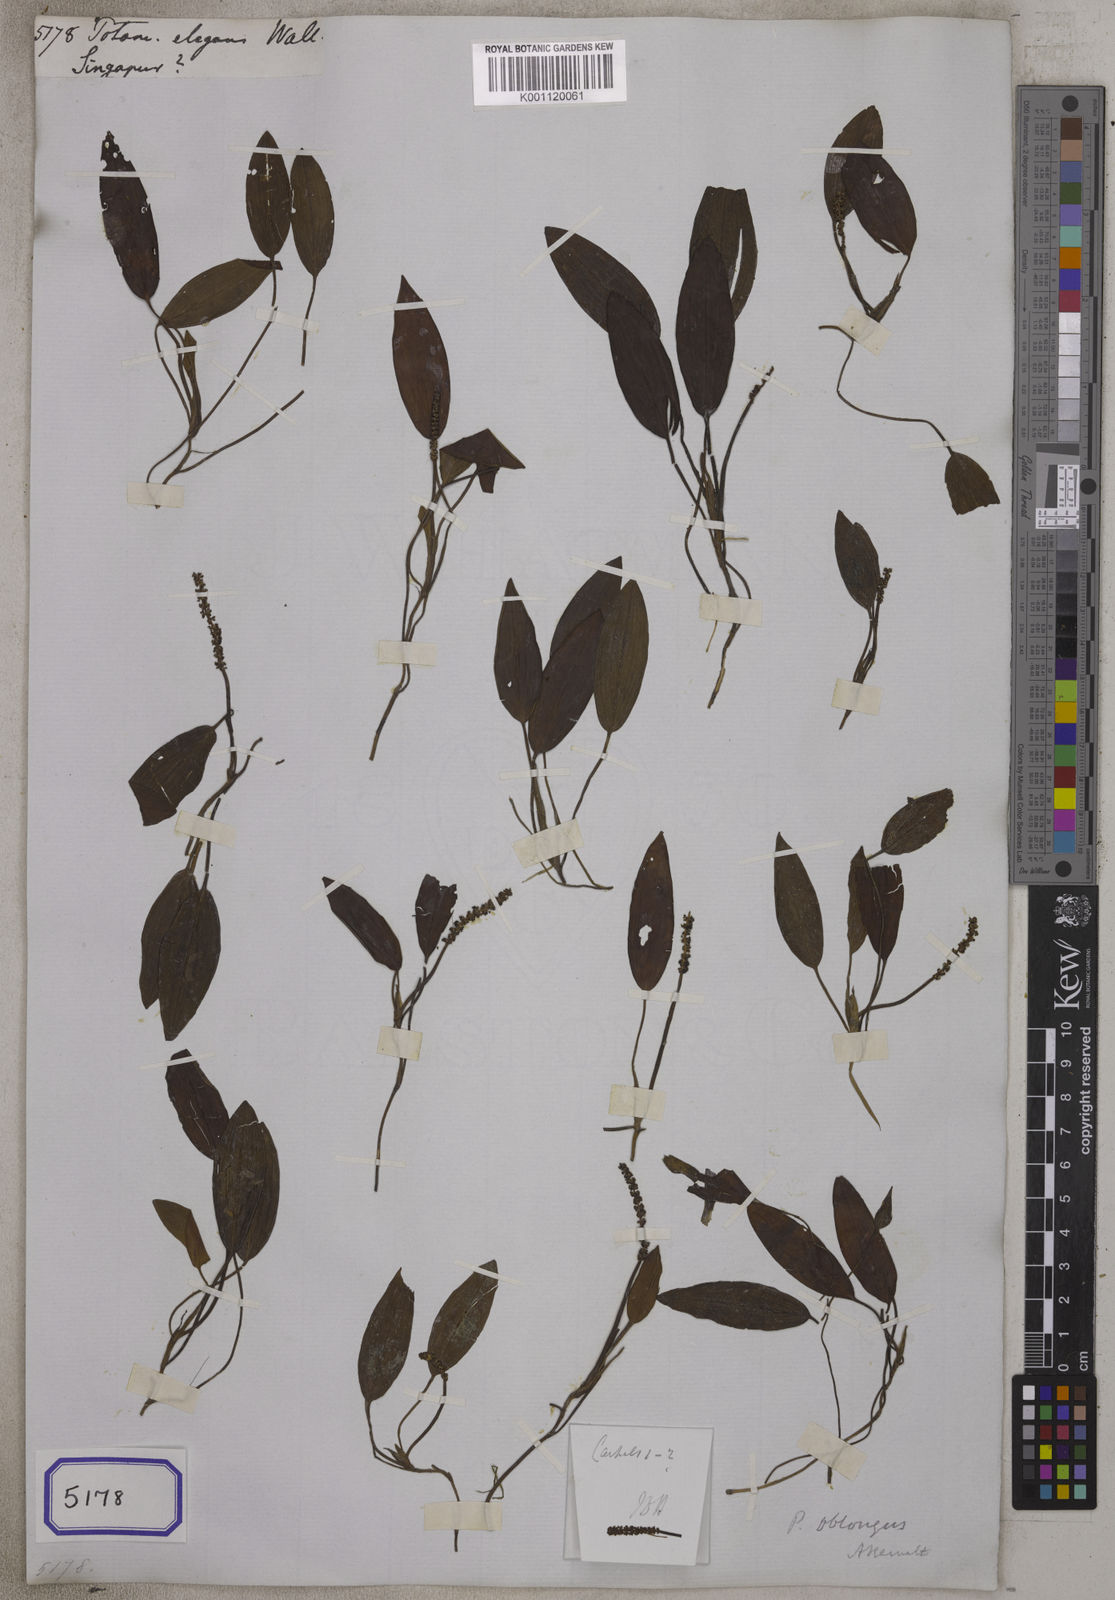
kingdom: Plantae
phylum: Tracheophyta
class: Liliopsida
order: Alismatales
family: Potamogetonaceae
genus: Potamogeton
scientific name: Potamogeton
